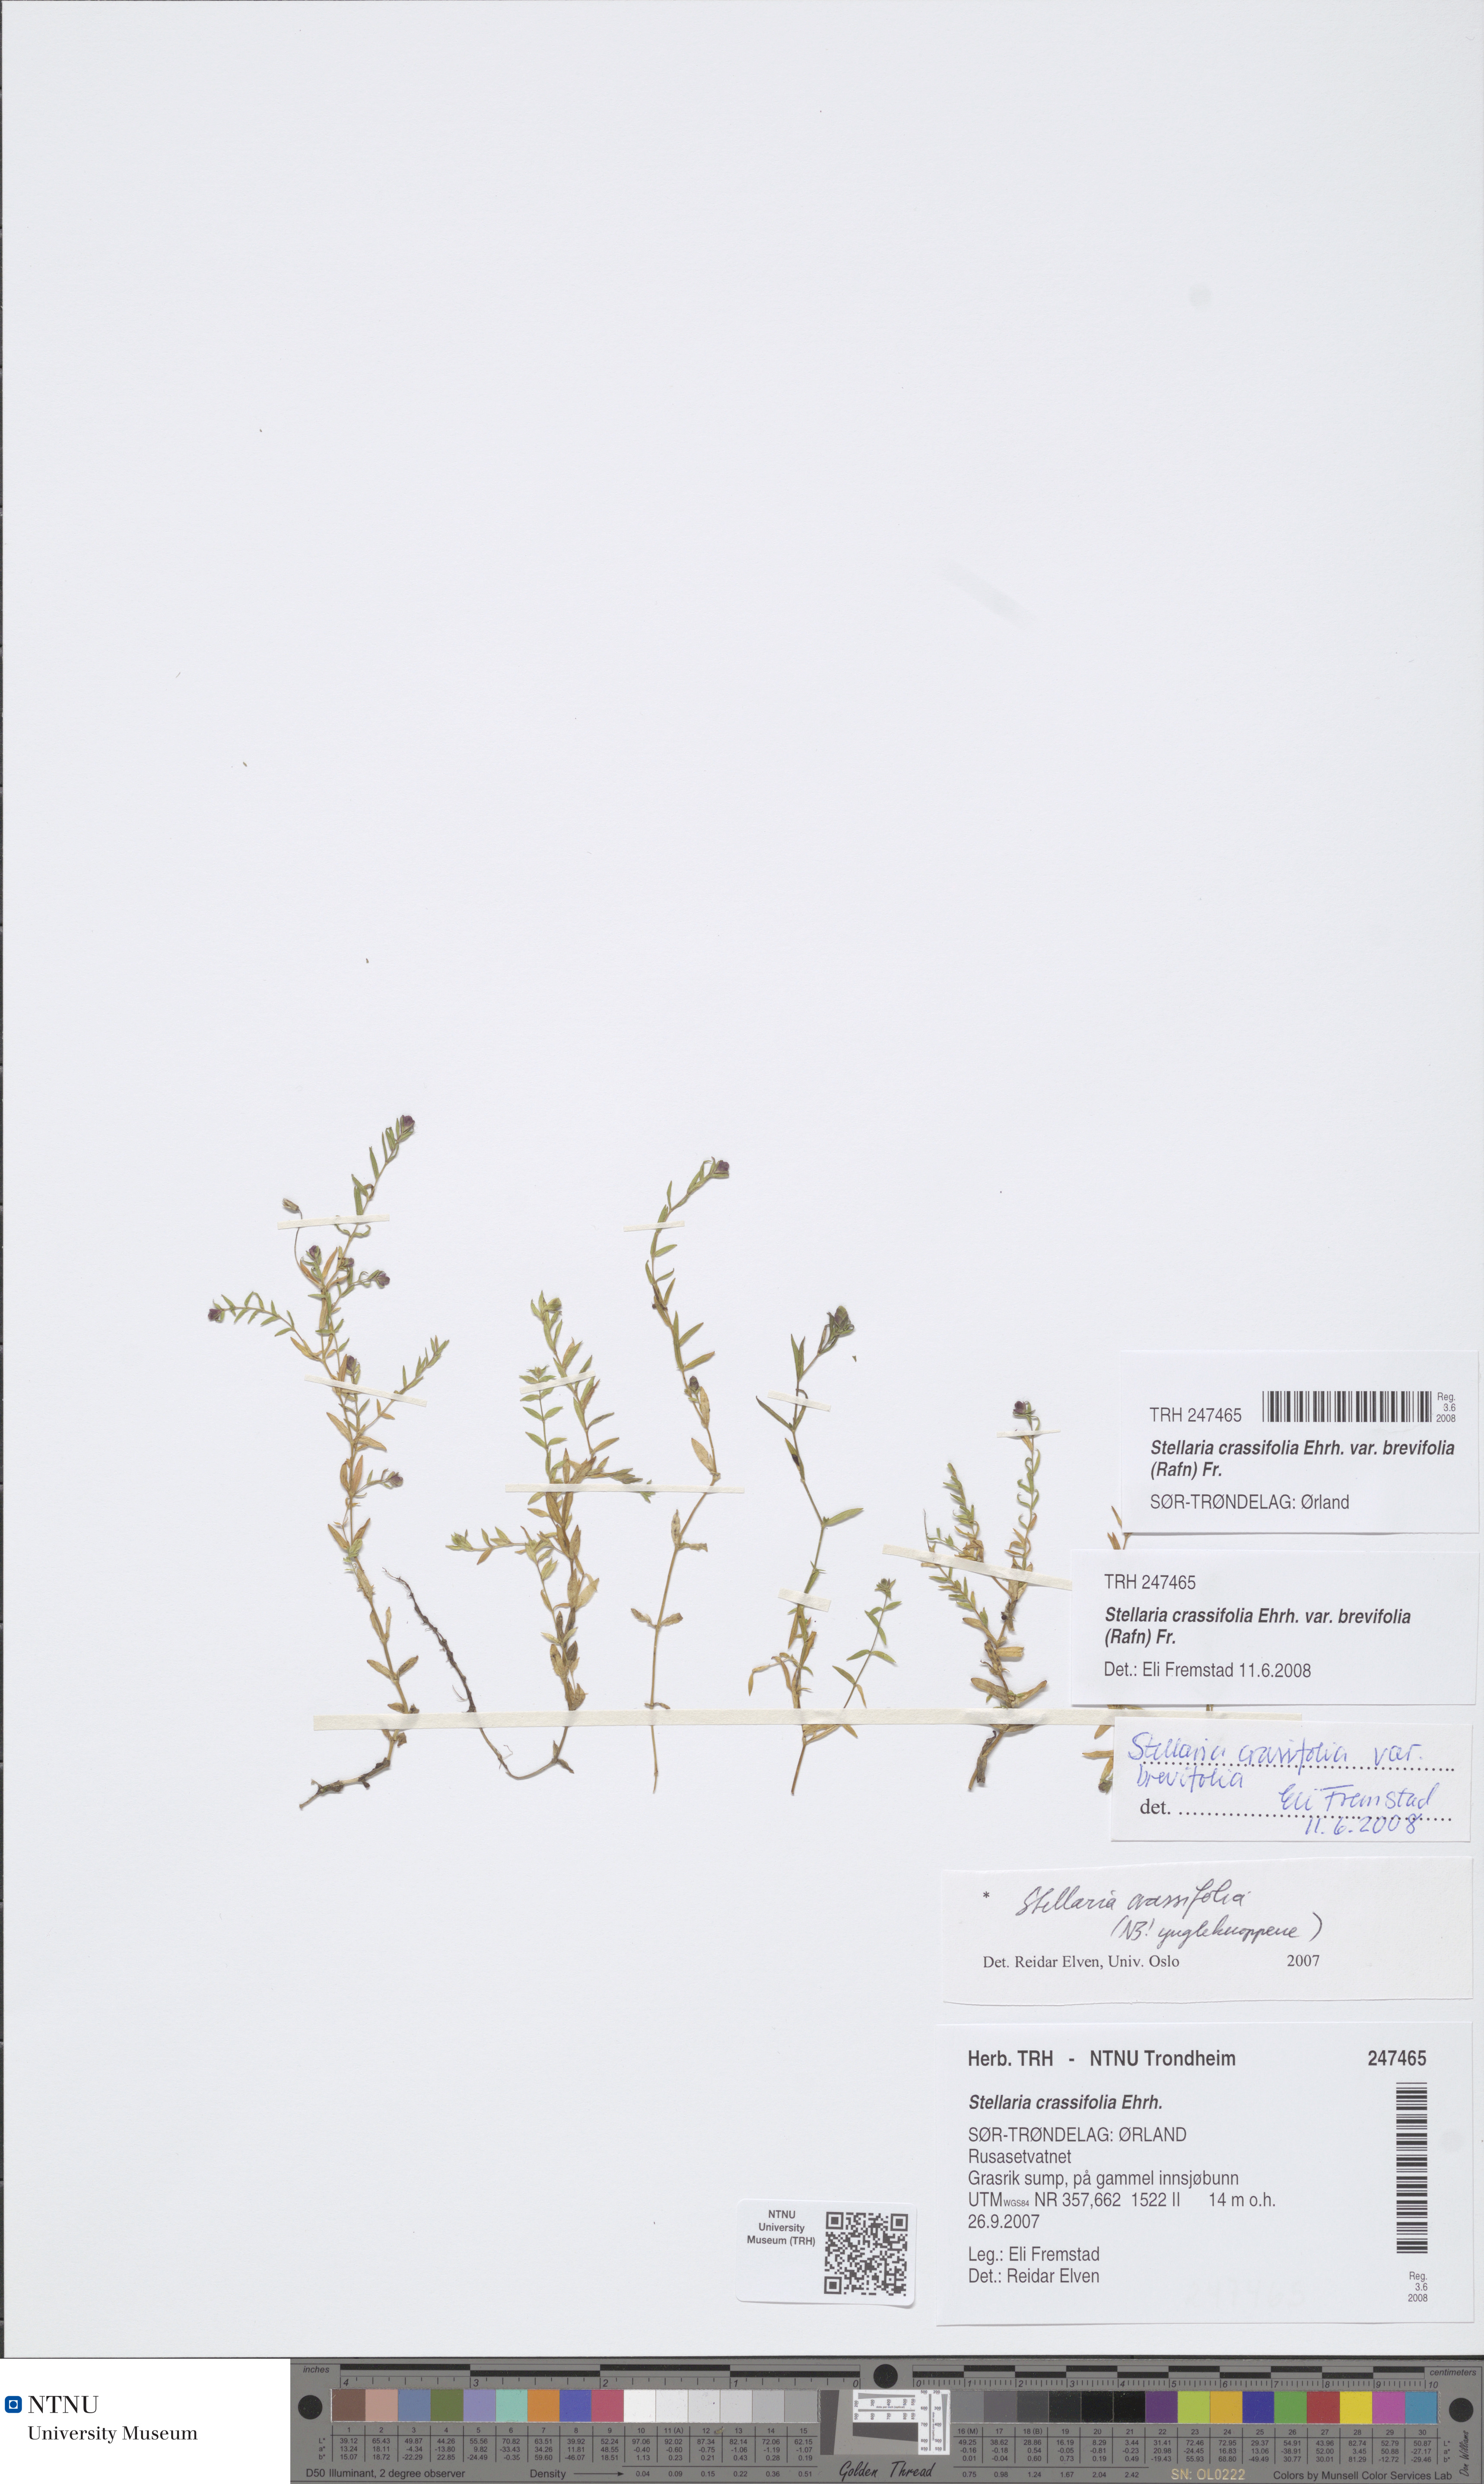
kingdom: Plantae
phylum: Tracheophyta
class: Magnoliopsida
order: Caryophyllales
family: Caryophyllaceae
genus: Stellaria
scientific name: Stellaria crassifolia
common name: Fleshy starwort
